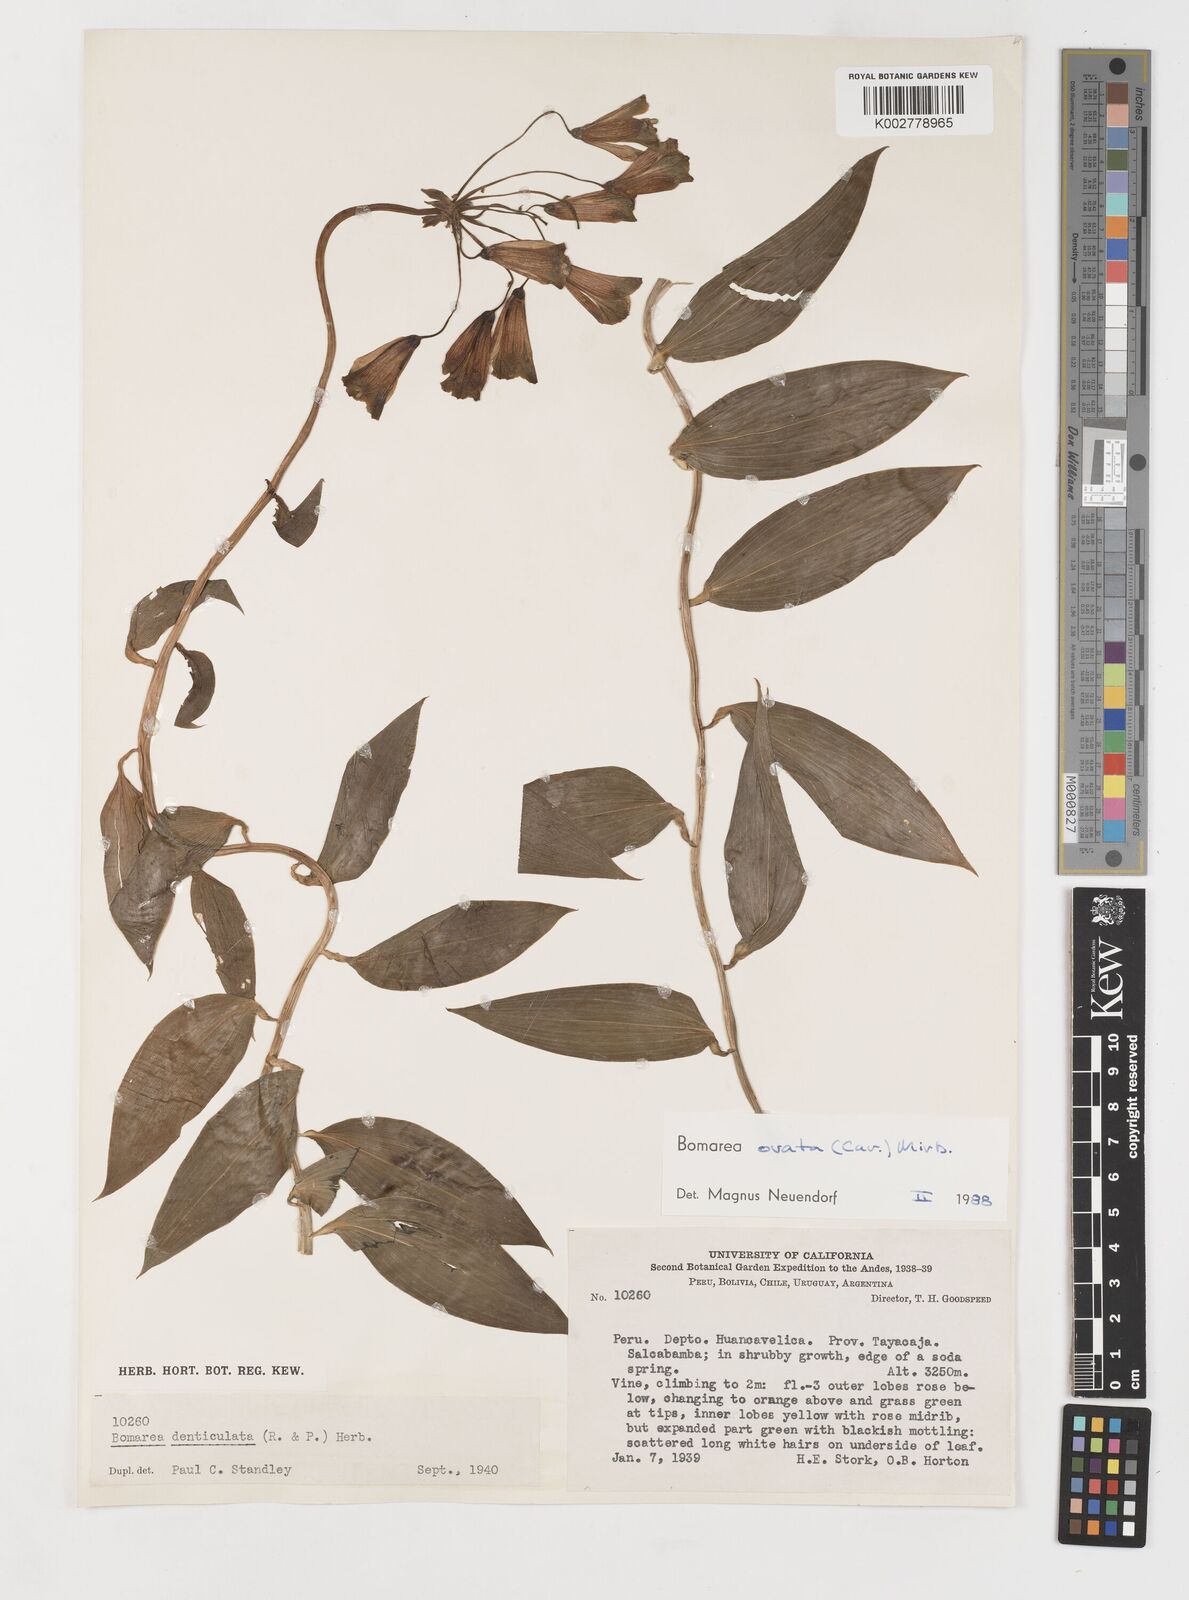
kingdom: Plantae
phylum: Tracheophyta
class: Liliopsida
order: Liliales
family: Alstroemeriaceae
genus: Bomarea
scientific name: Bomarea ovata
